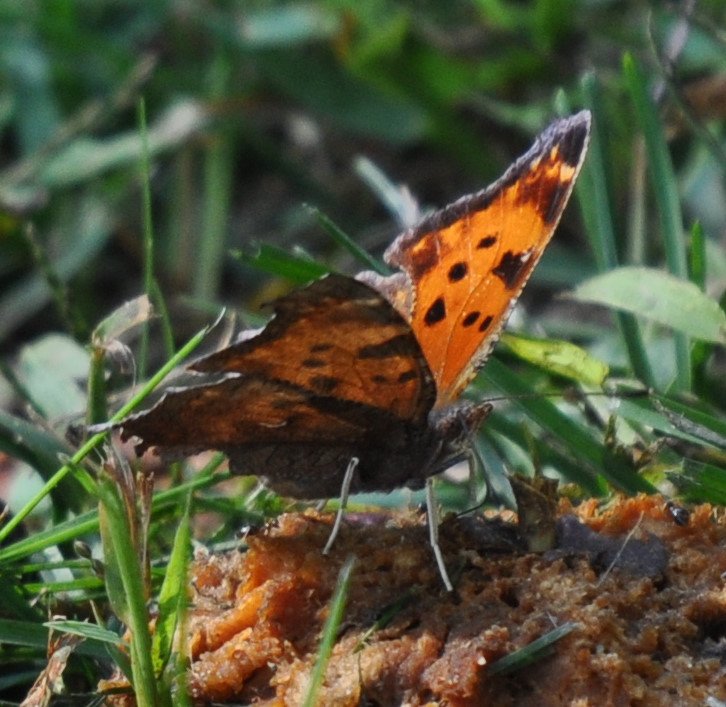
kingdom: Animalia
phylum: Arthropoda
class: Insecta
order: Lepidoptera
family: Nymphalidae
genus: Polygonia
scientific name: Polygonia comma
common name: Eastern Comma
